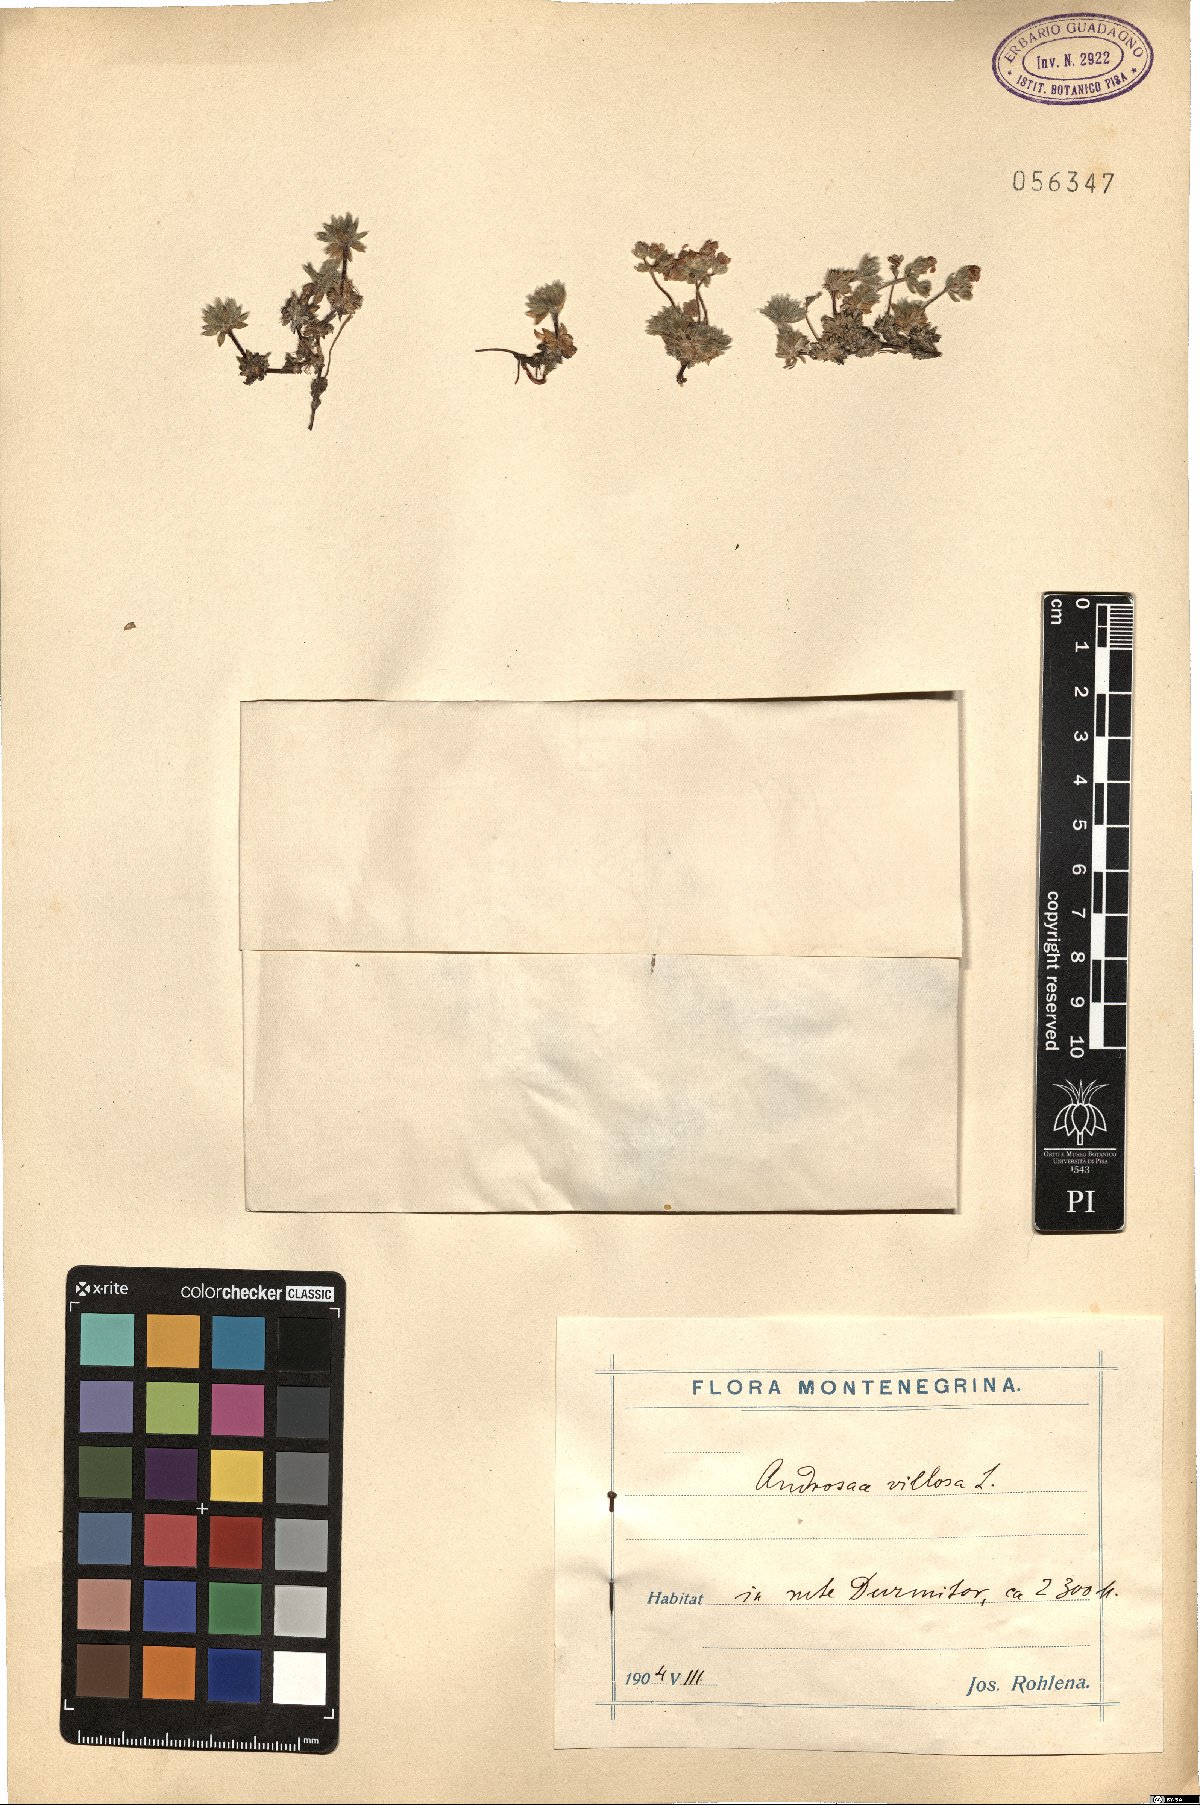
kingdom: Plantae
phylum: Tracheophyta
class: Magnoliopsida
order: Ericales
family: Primulaceae
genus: Androsace
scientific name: Androsace villosa
